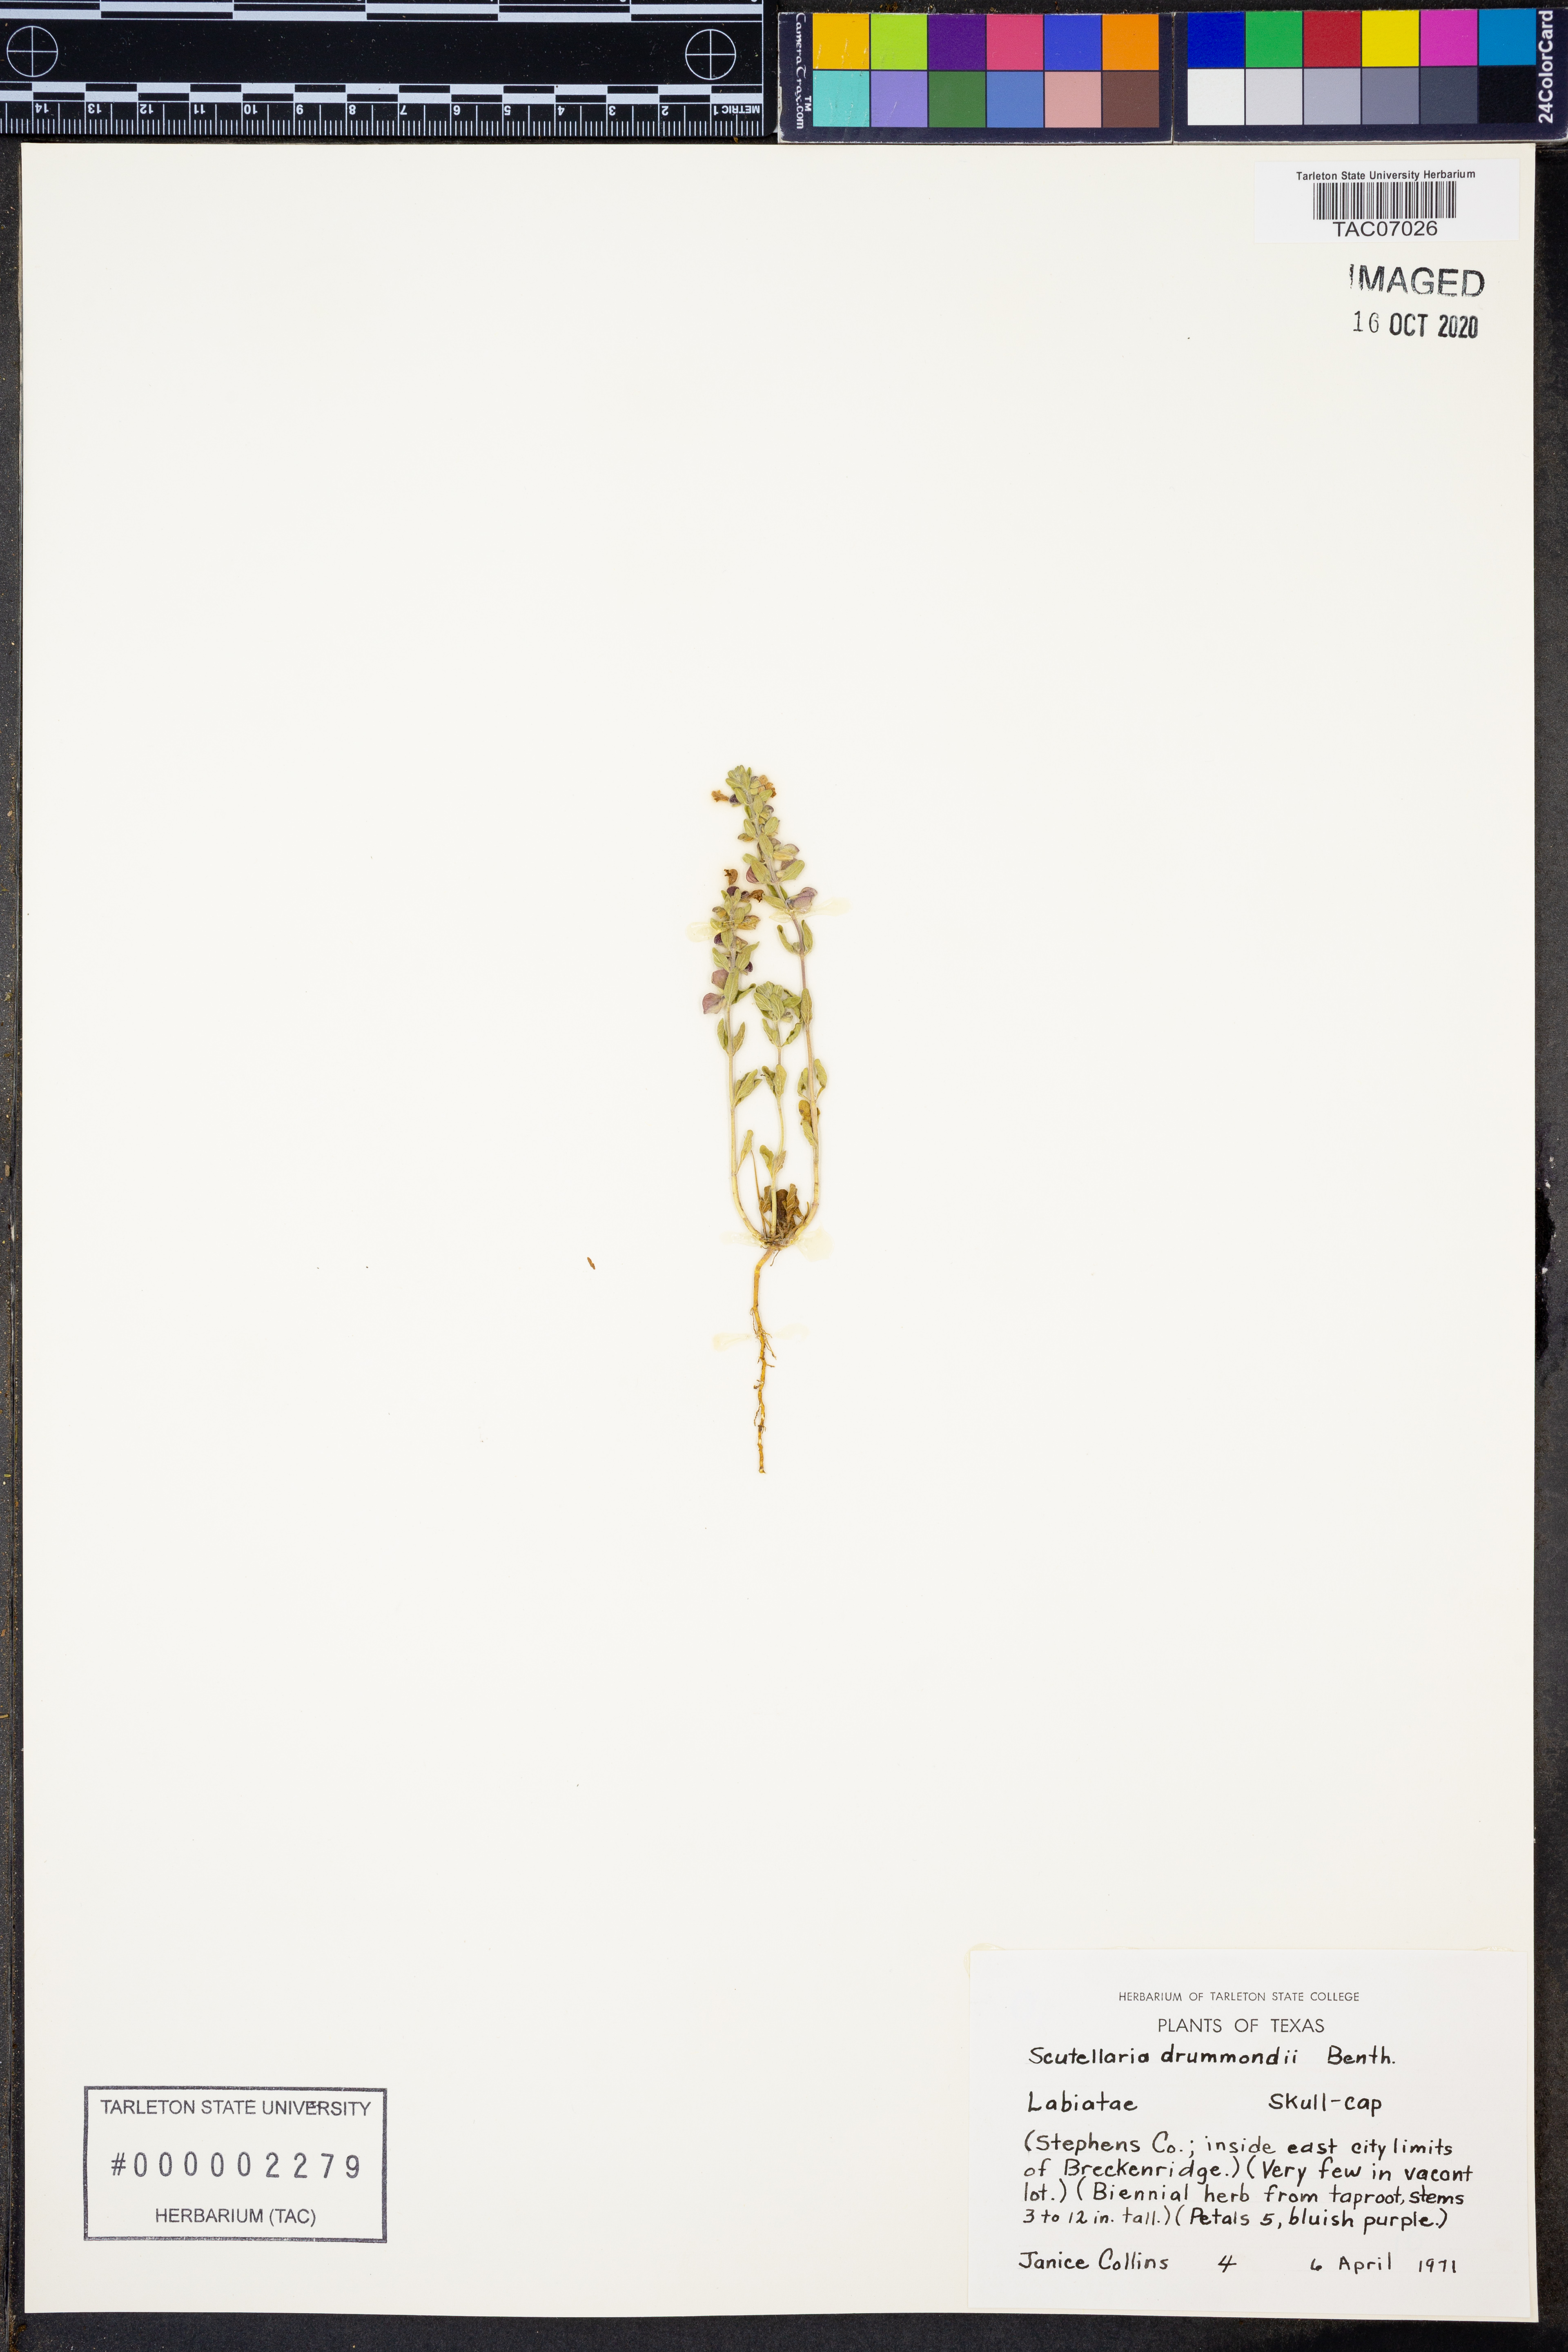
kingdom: Plantae
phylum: Tracheophyta
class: Magnoliopsida
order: Lamiales
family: Lamiaceae
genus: Scutellaria
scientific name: Scutellaria drummondii
